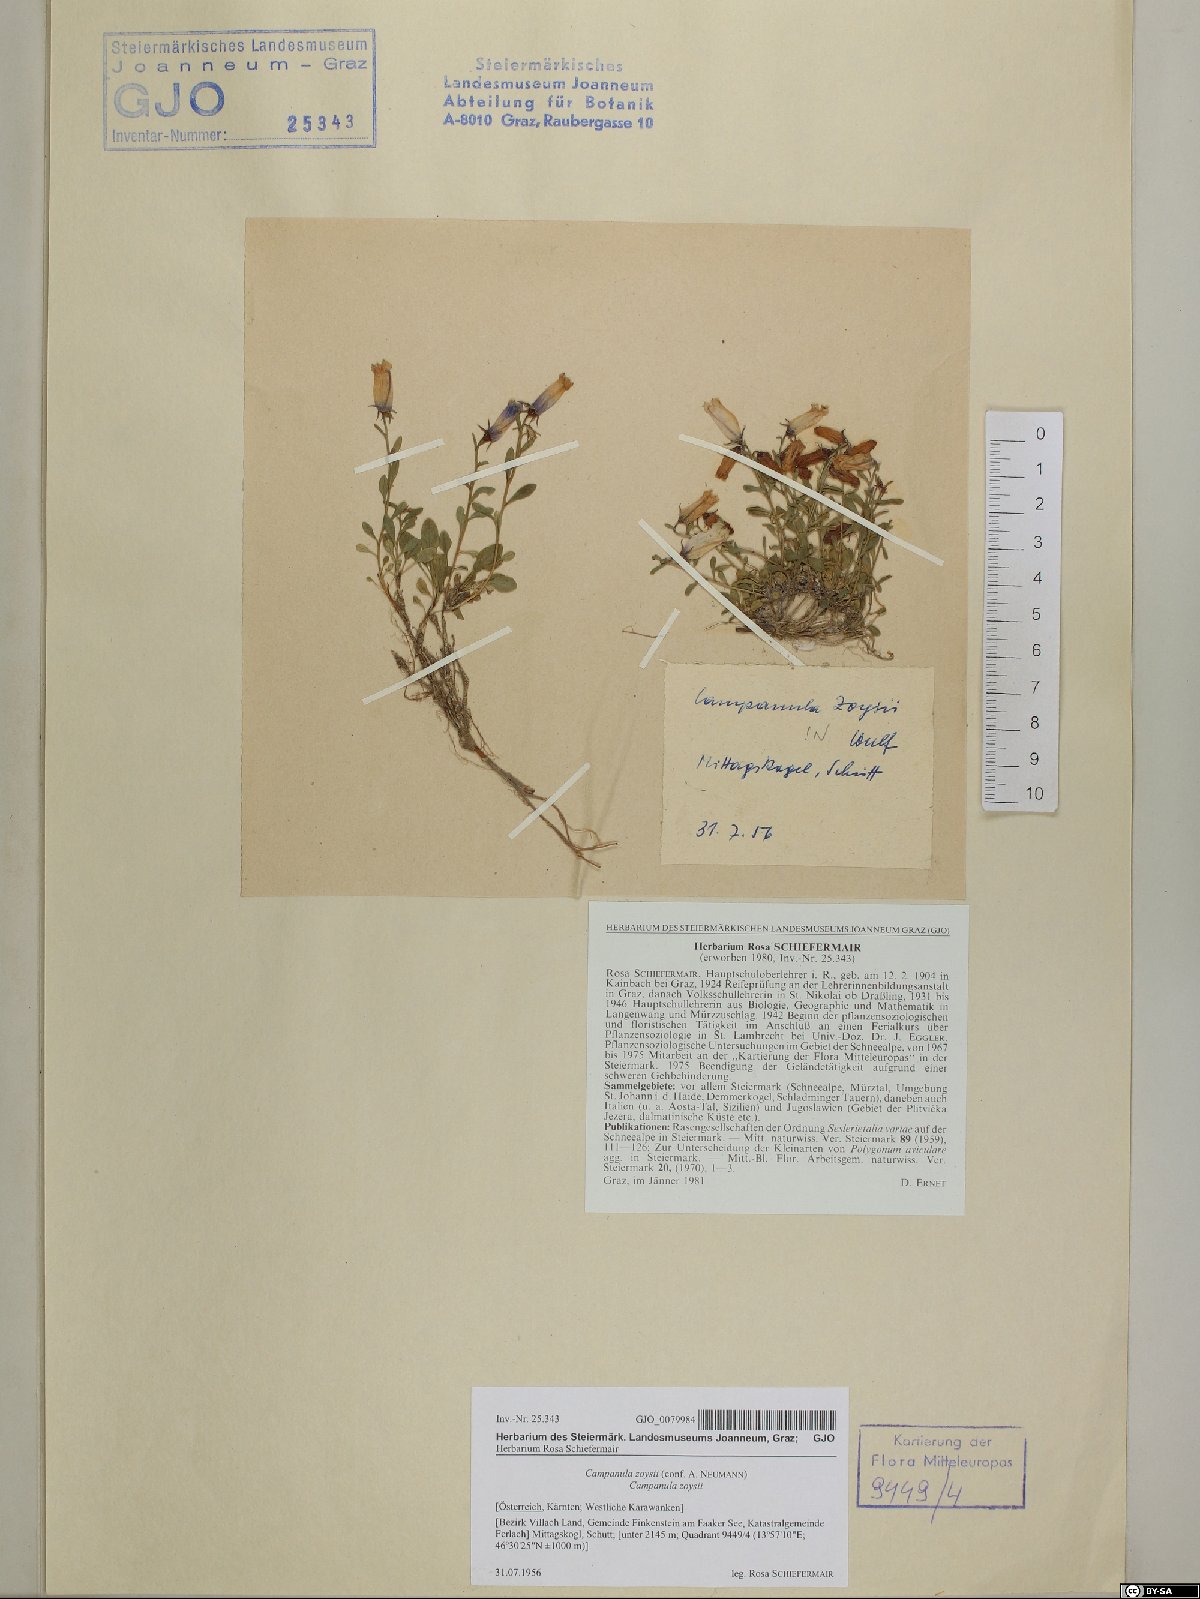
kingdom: Plantae
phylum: Tracheophyta
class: Magnoliopsida
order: Asterales
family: Campanulaceae
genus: Favratia
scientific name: Favratia zoysii
